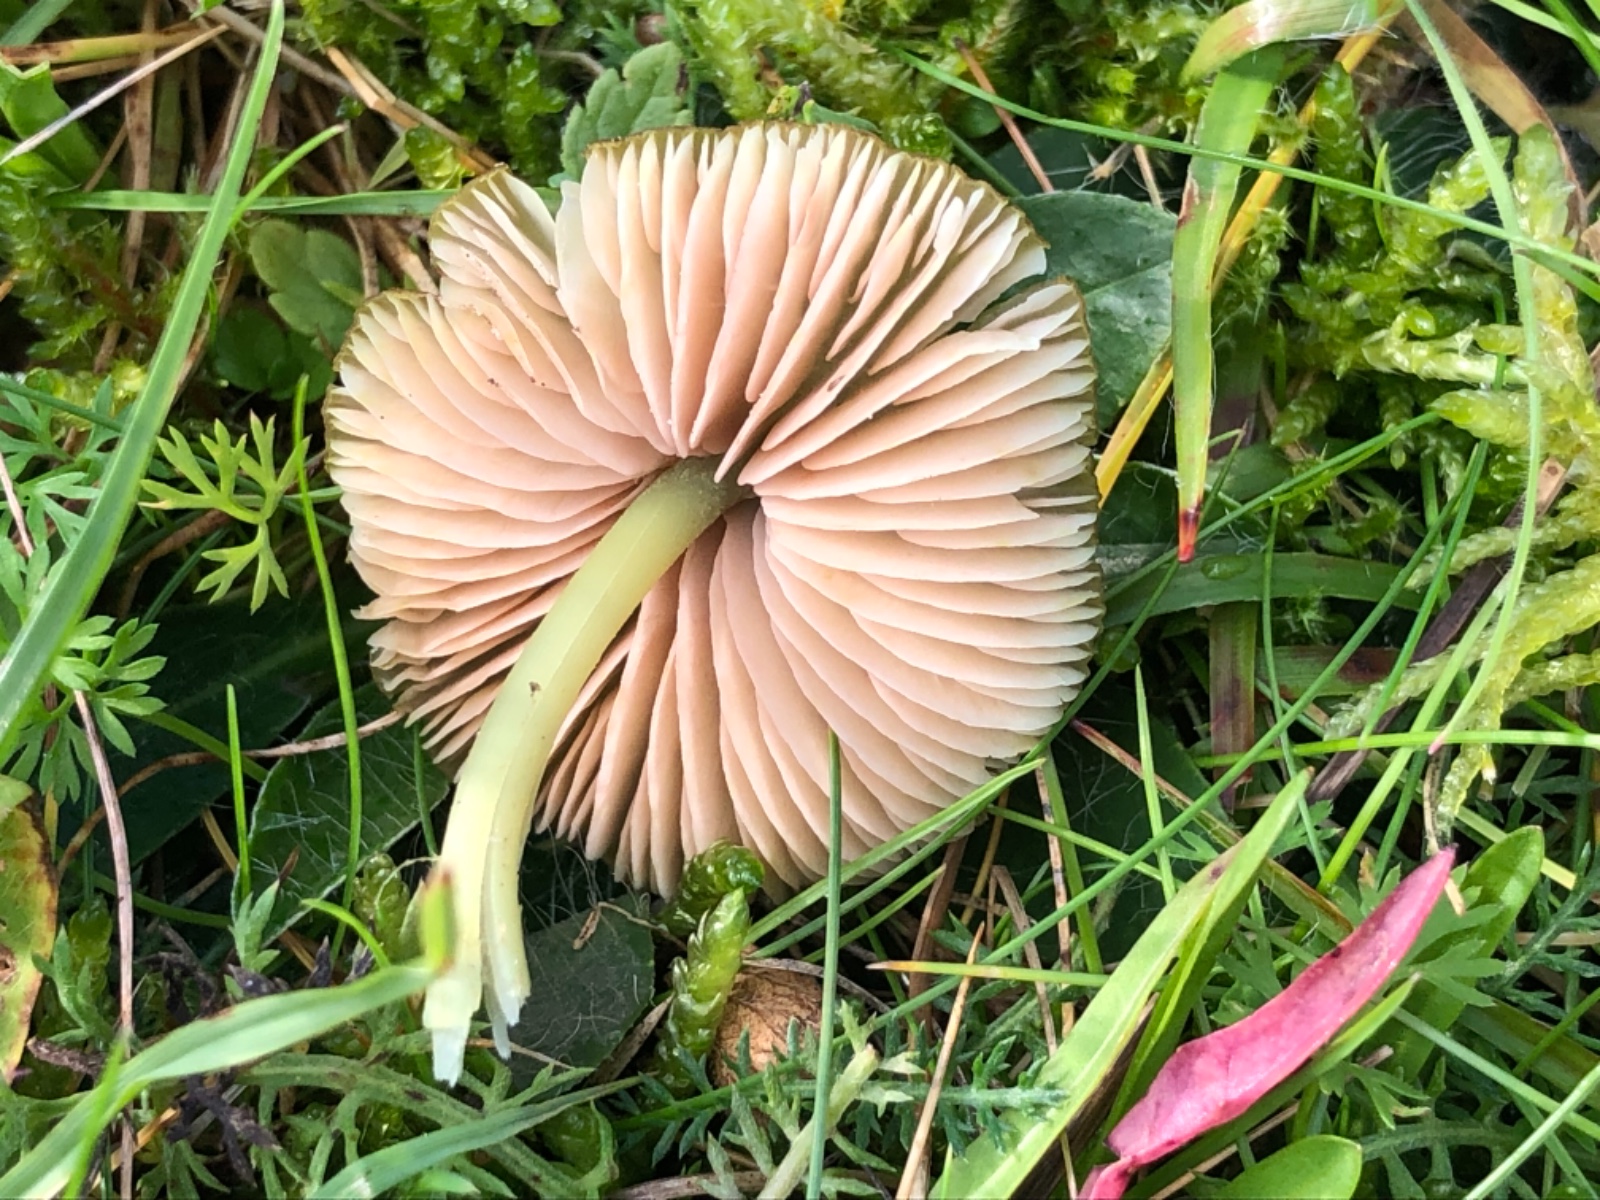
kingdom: Fungi
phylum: Basidiomycota
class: Agaricomycetes
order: Agaricales
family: Entolomataceae
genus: Entoloma
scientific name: Entoloma incanum
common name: grøngul rødblad
